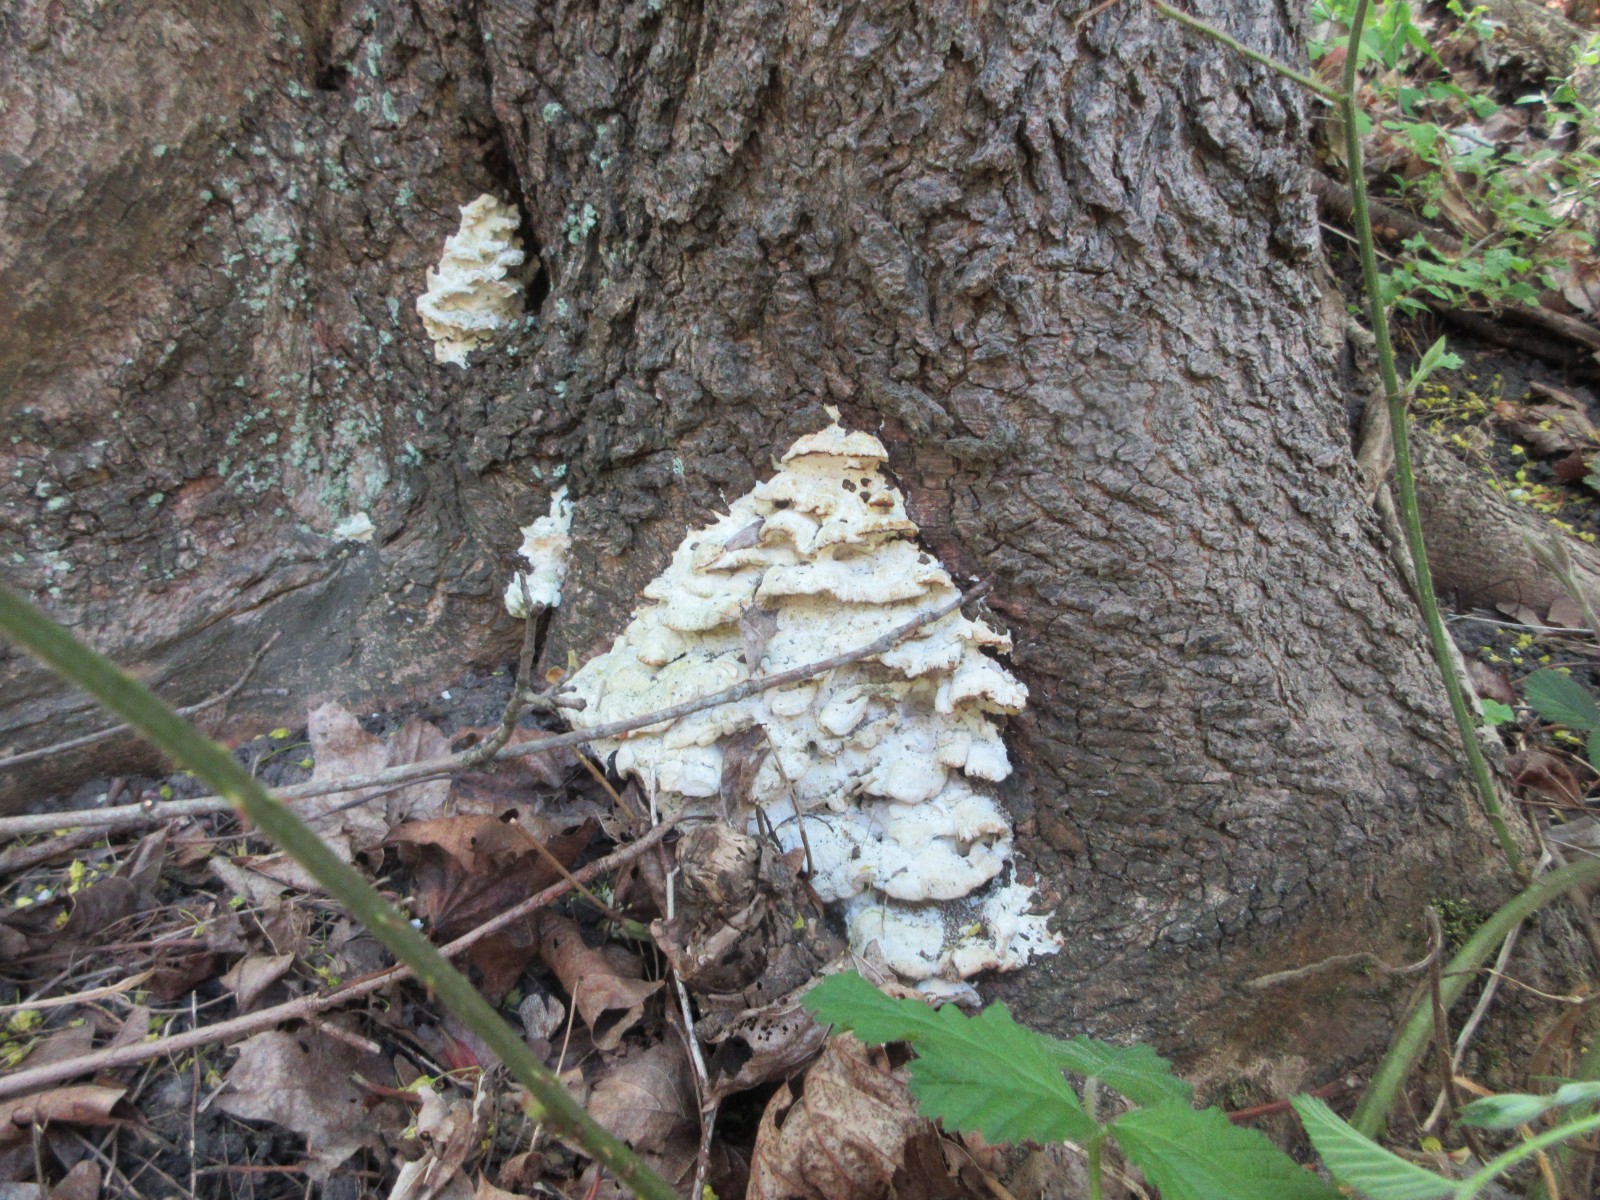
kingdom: Fungi
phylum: Basidiomycota
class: Agaricomycetes
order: Hymenochaetales
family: Oxyporaceae
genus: Oxyporus
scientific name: Oxyporus populinus
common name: sammenvokset trylleporesvamp
